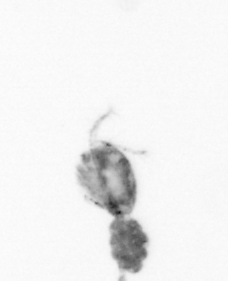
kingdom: Animalia
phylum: Arthropoda
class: Copepoda
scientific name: Copepoda
